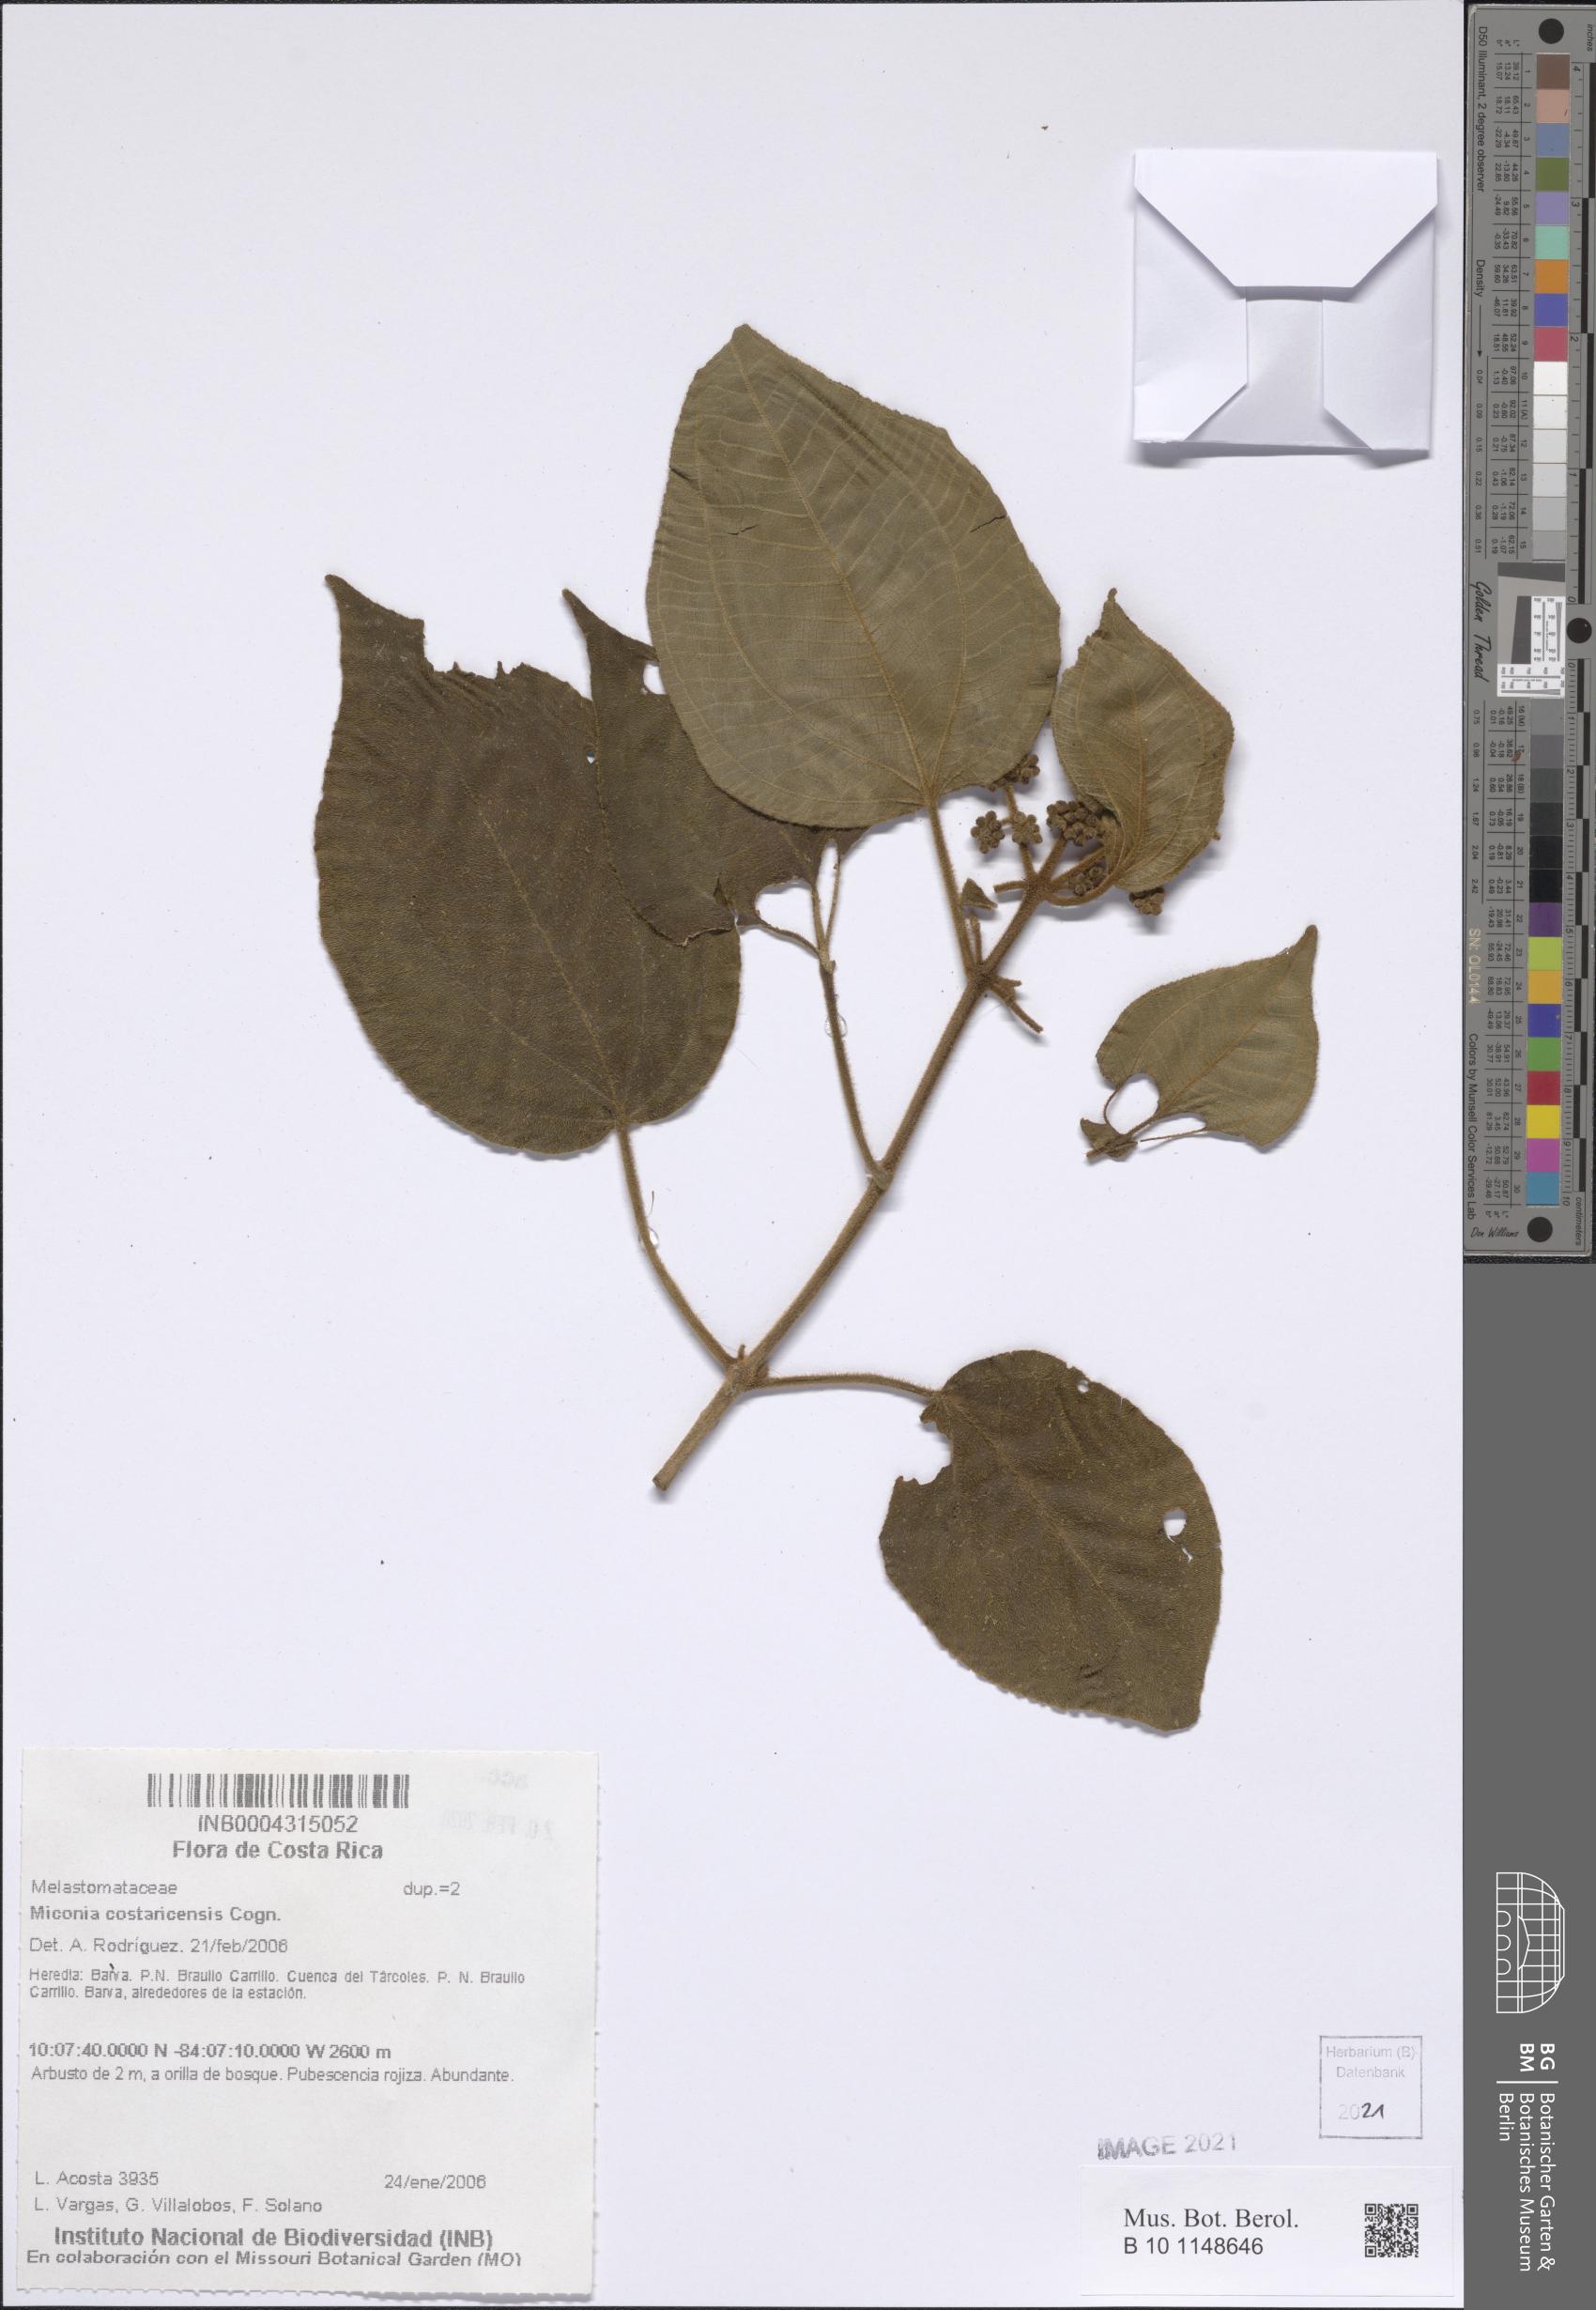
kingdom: Plantae
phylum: Tracheophyta
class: Magnoliopsida
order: Myrtales
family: Melastomataceae
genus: Miconia
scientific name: Miconia costaricensis
